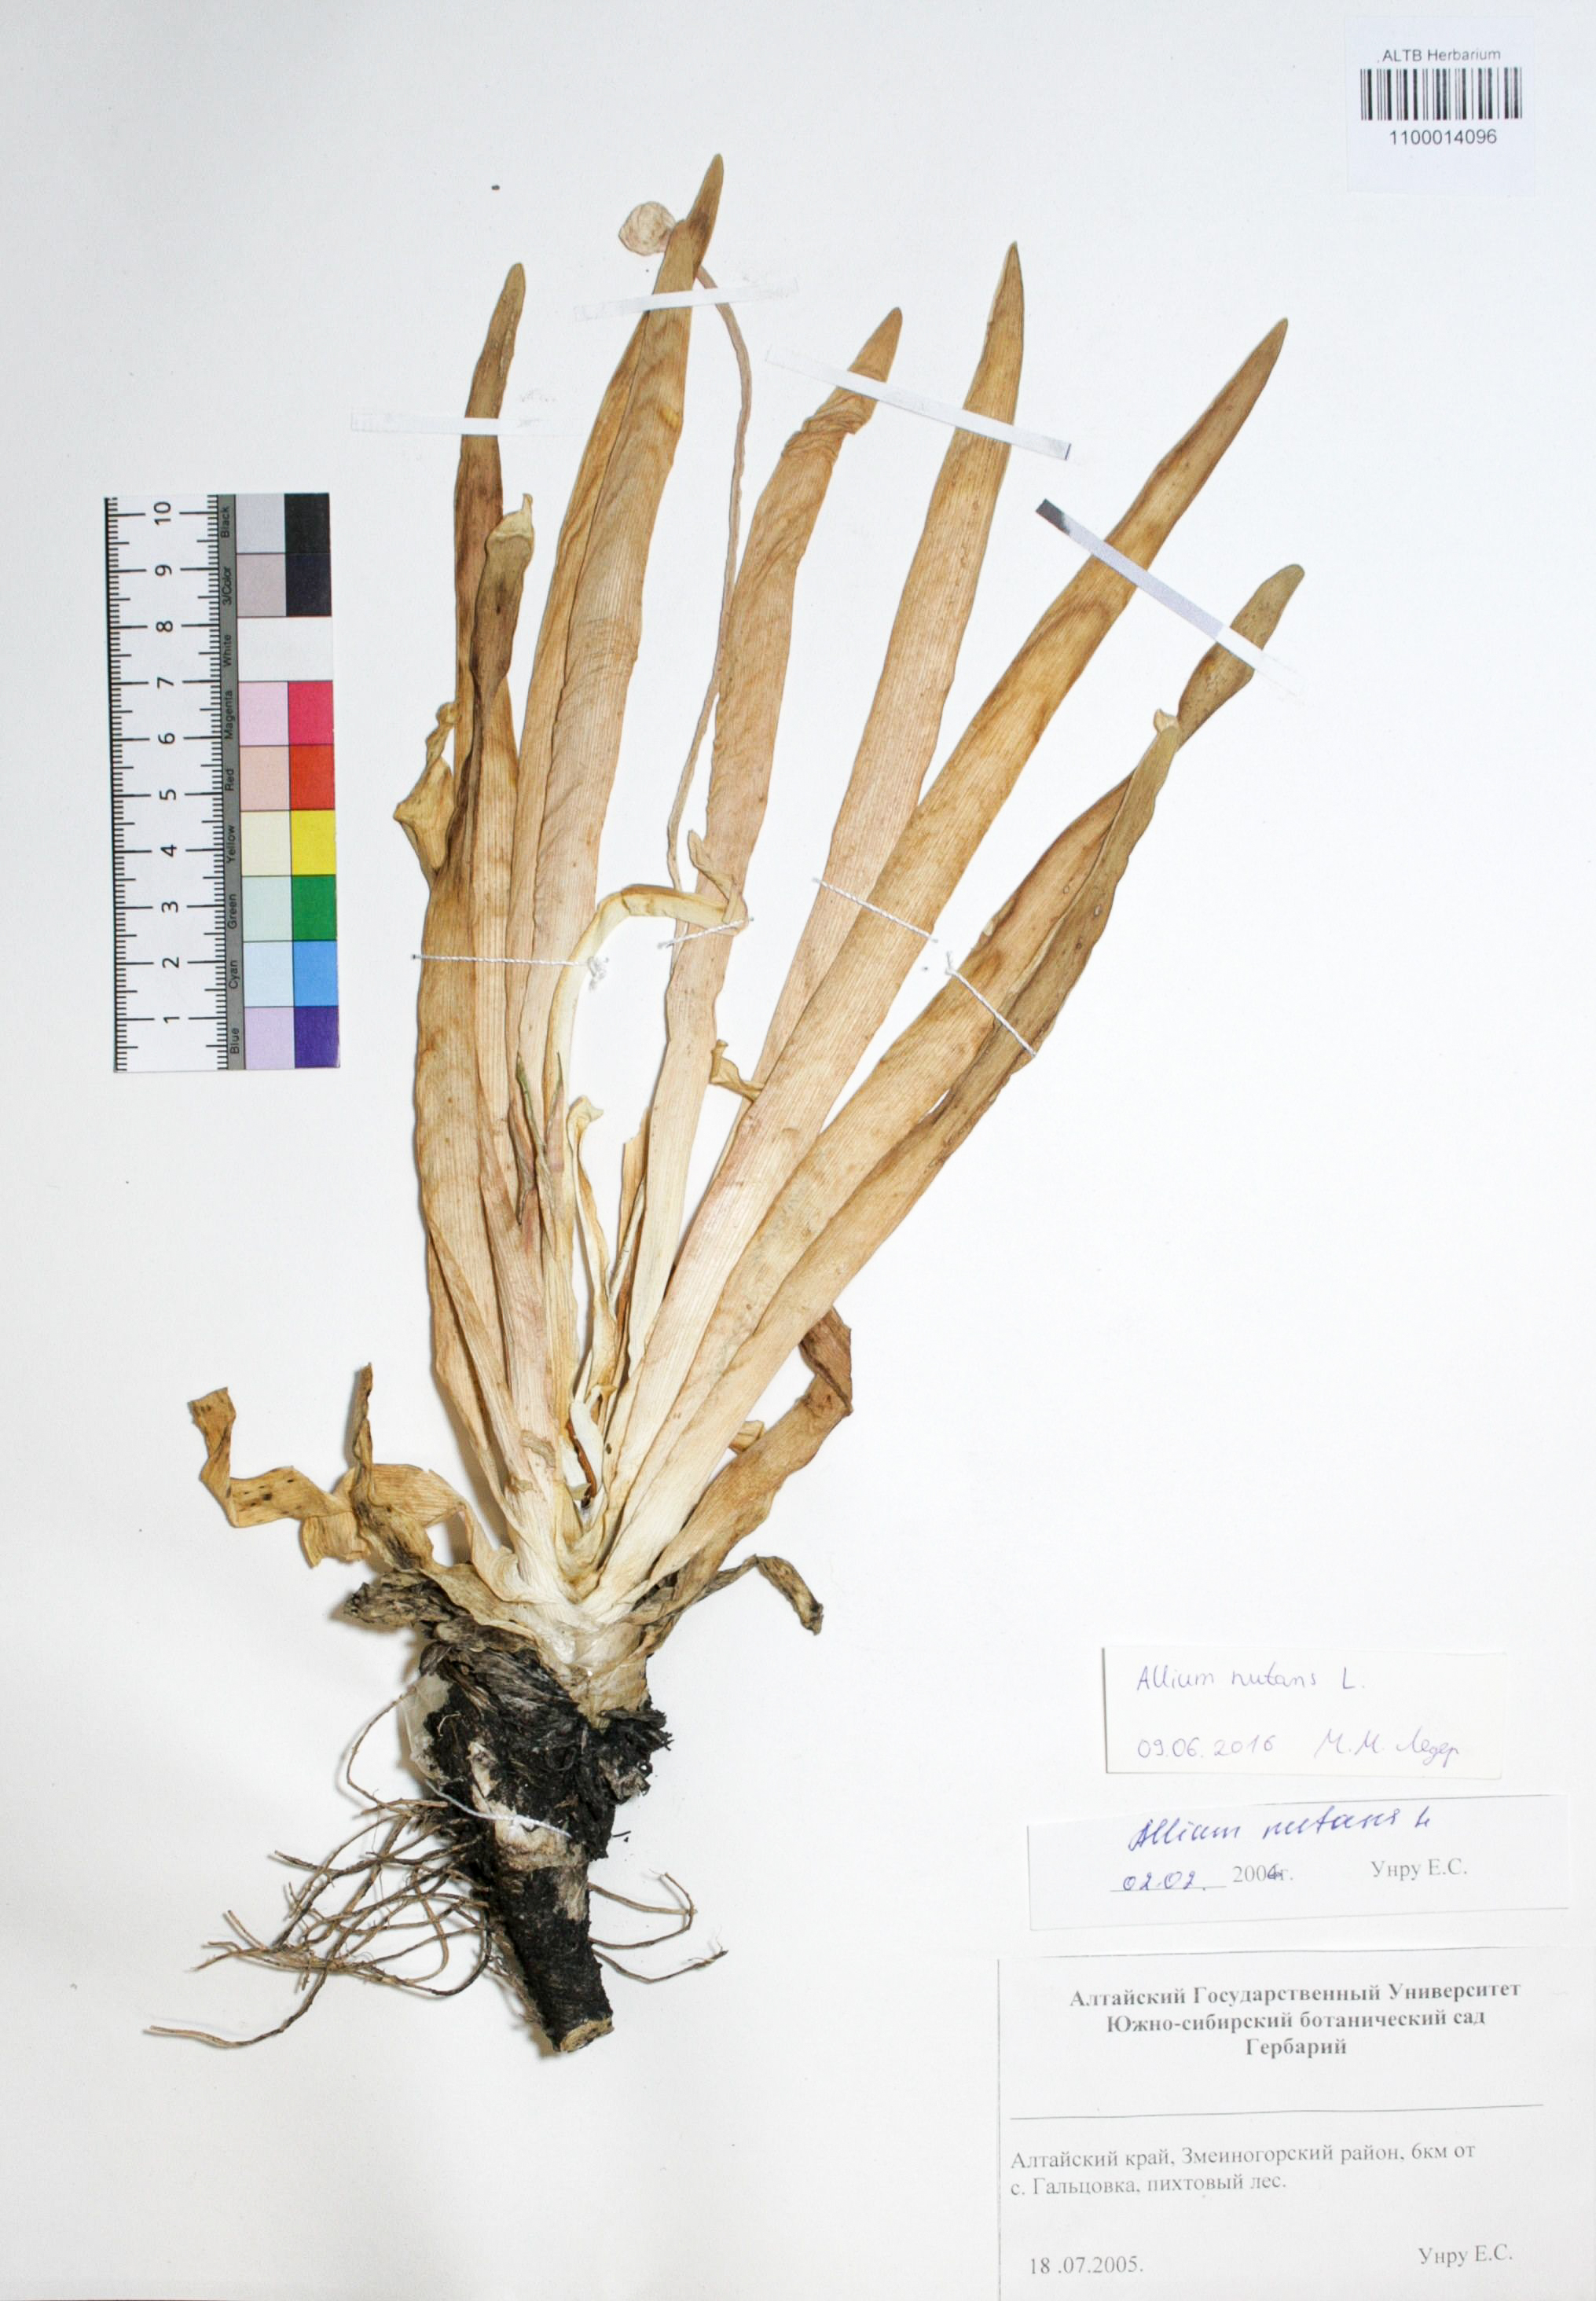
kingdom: Plantae
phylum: Tracheophyta
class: Liliopsida
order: Asparagales
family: Amaryllidaceae
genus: Allium
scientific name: Allium nutans
